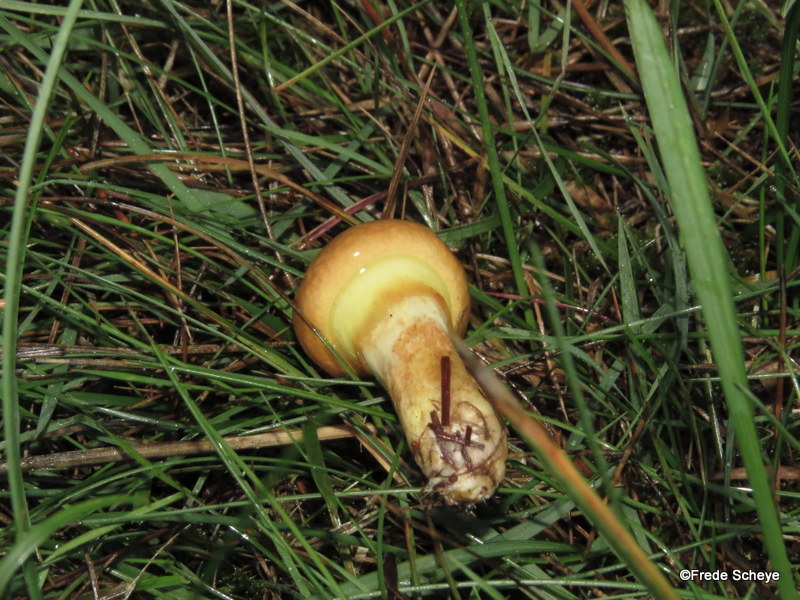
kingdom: Fungi
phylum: Basidiomycota
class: Agaricomycetes
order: Boletales
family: Suillaceae
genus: Suillus
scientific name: Suillus grevillei
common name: lærke-slimrørhat
